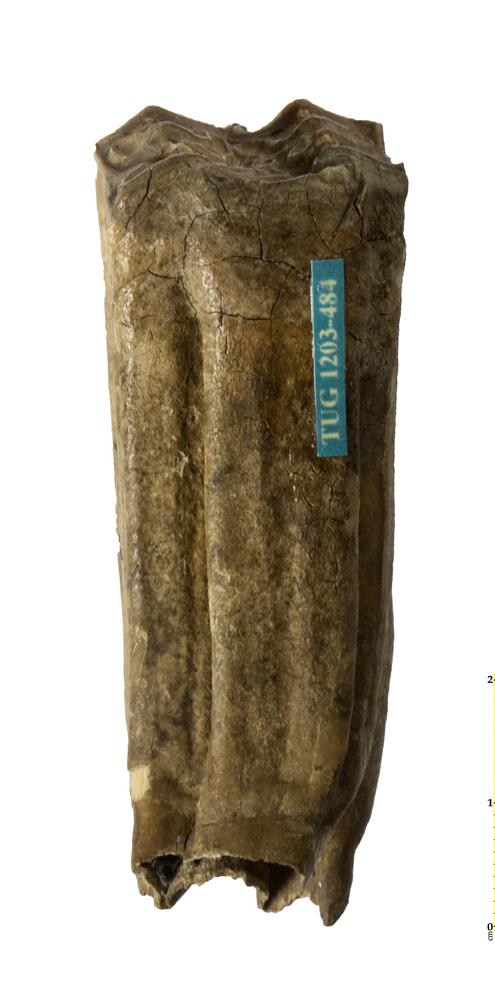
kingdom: Animalia
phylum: Chordata
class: Mammalia
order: Perissodactyla
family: Equidae
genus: Equus
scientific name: Equus
